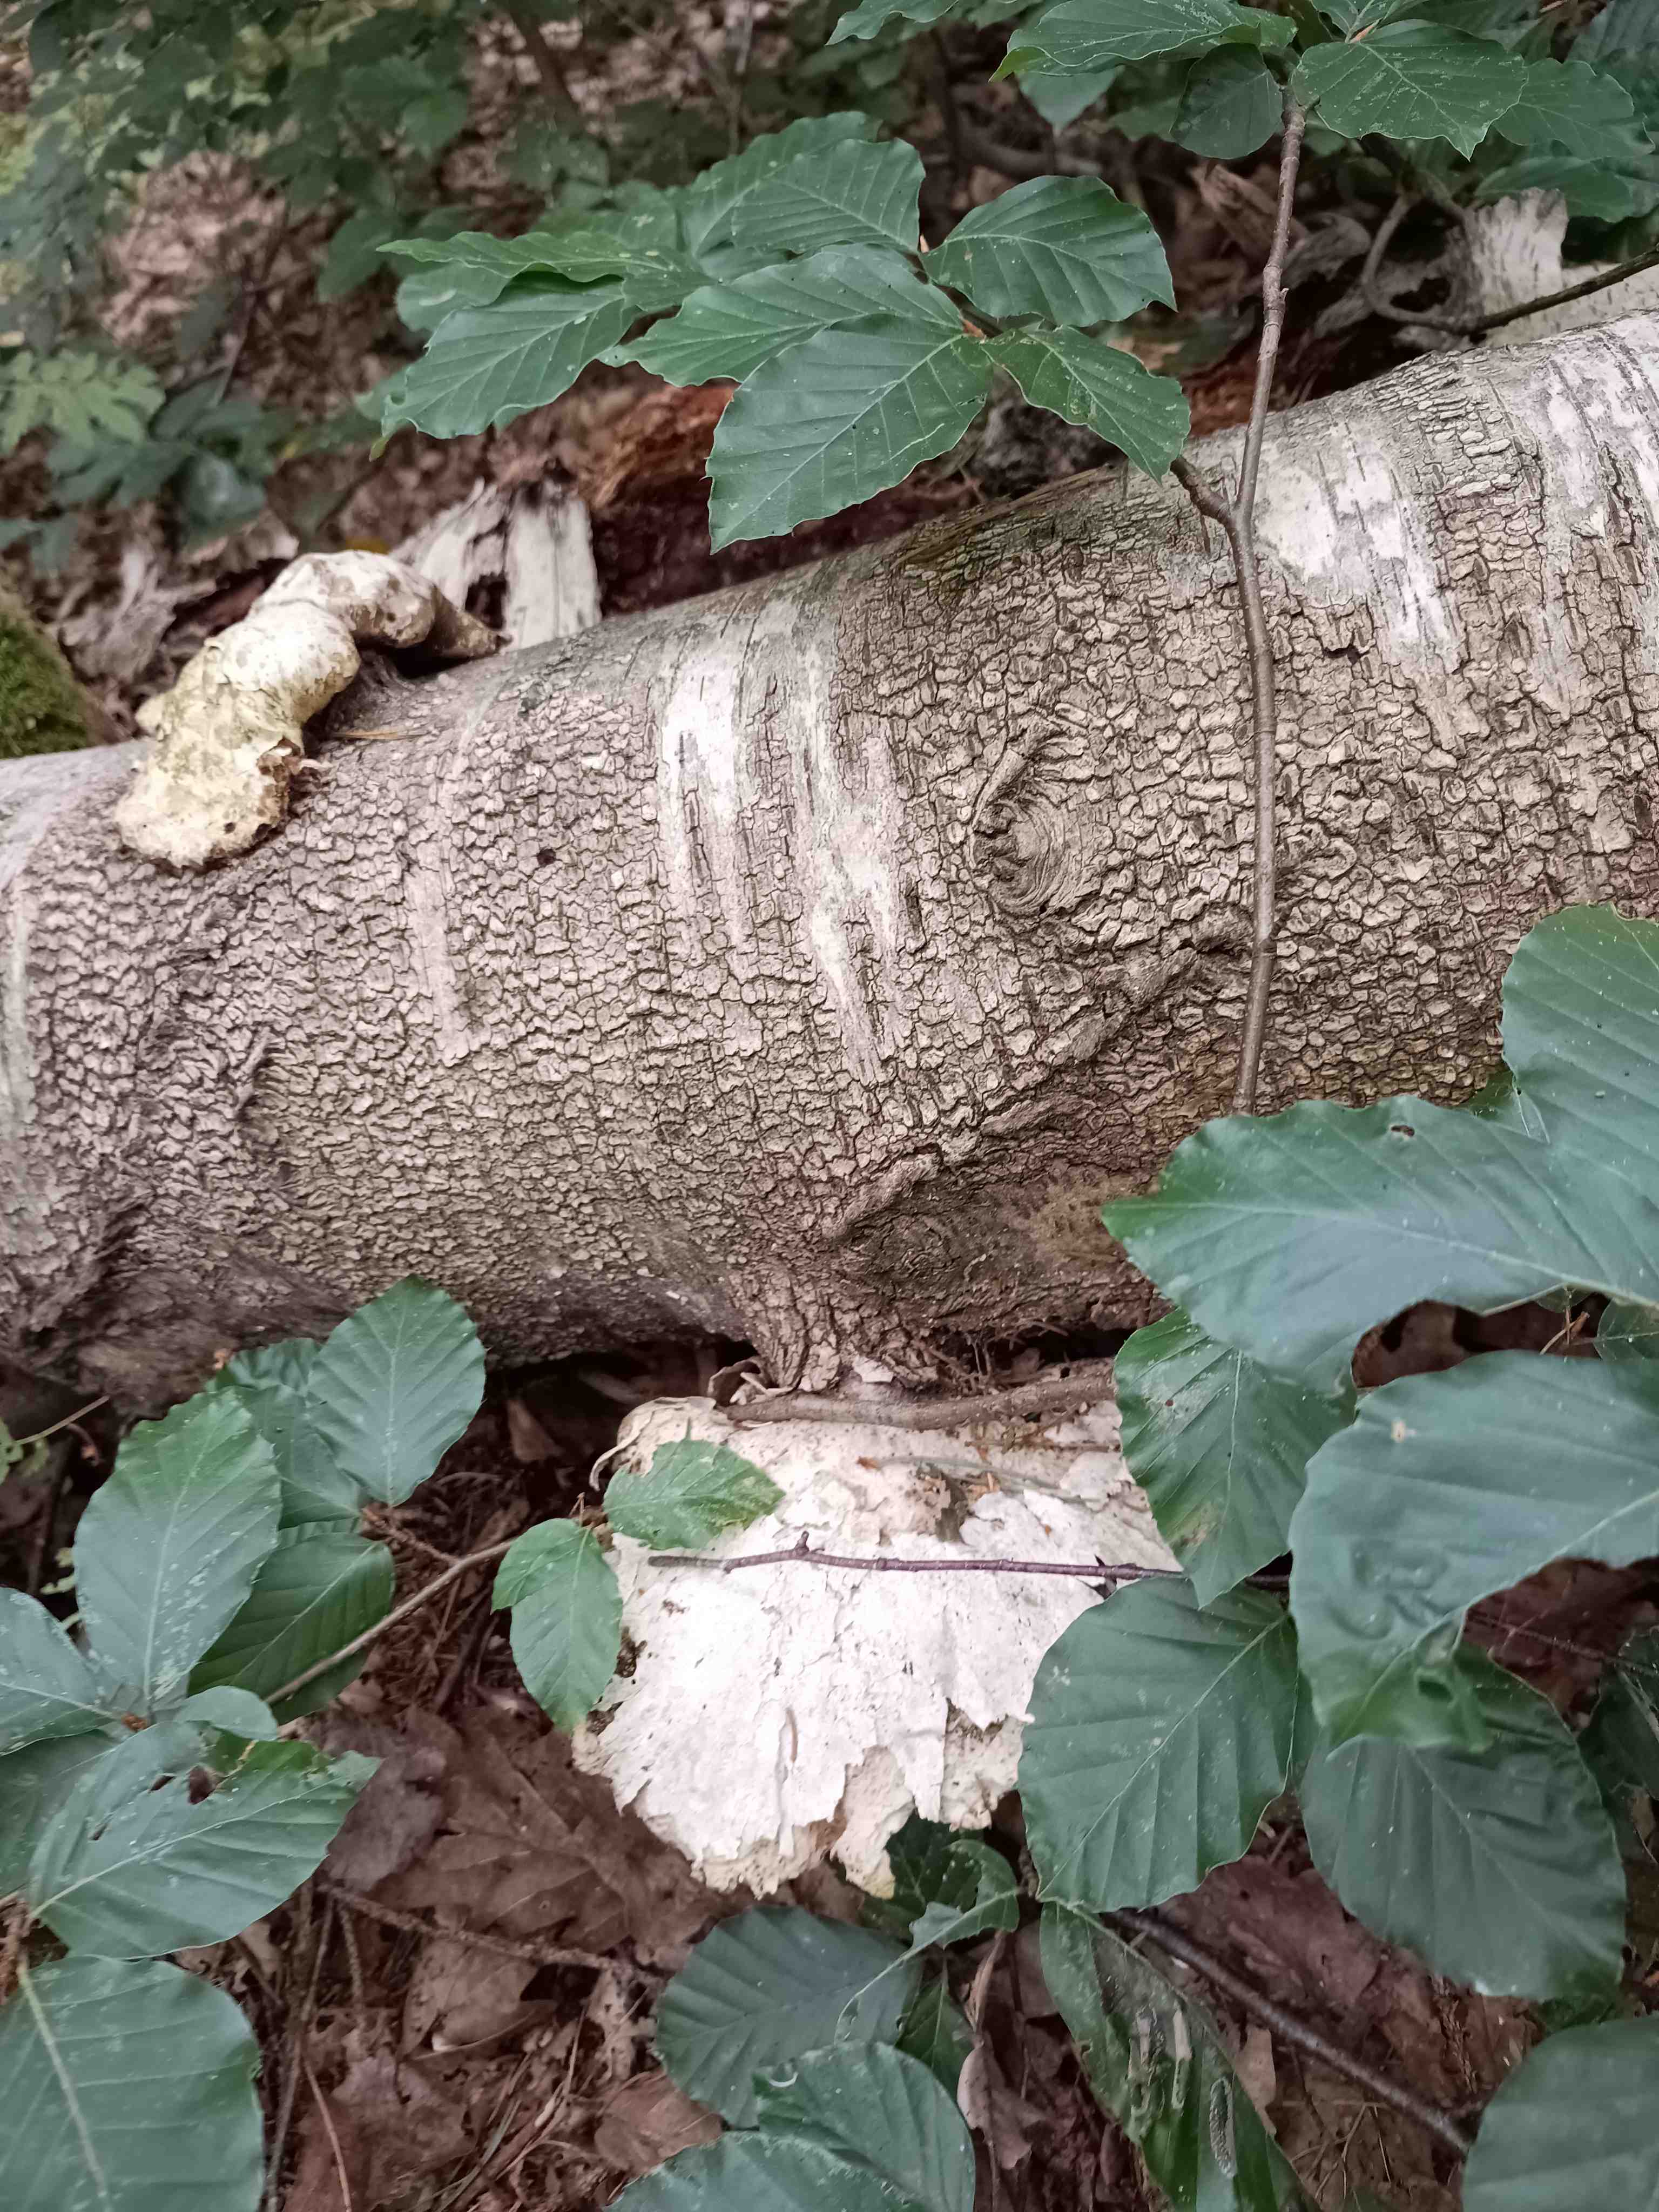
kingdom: Fungi
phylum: Basidiomycota
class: Agaricomycetes
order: Polyporales
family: Fomitopsidaceae
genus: Fomitopsis
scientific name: Fomitopsis betulina
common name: birkeporesvamp
